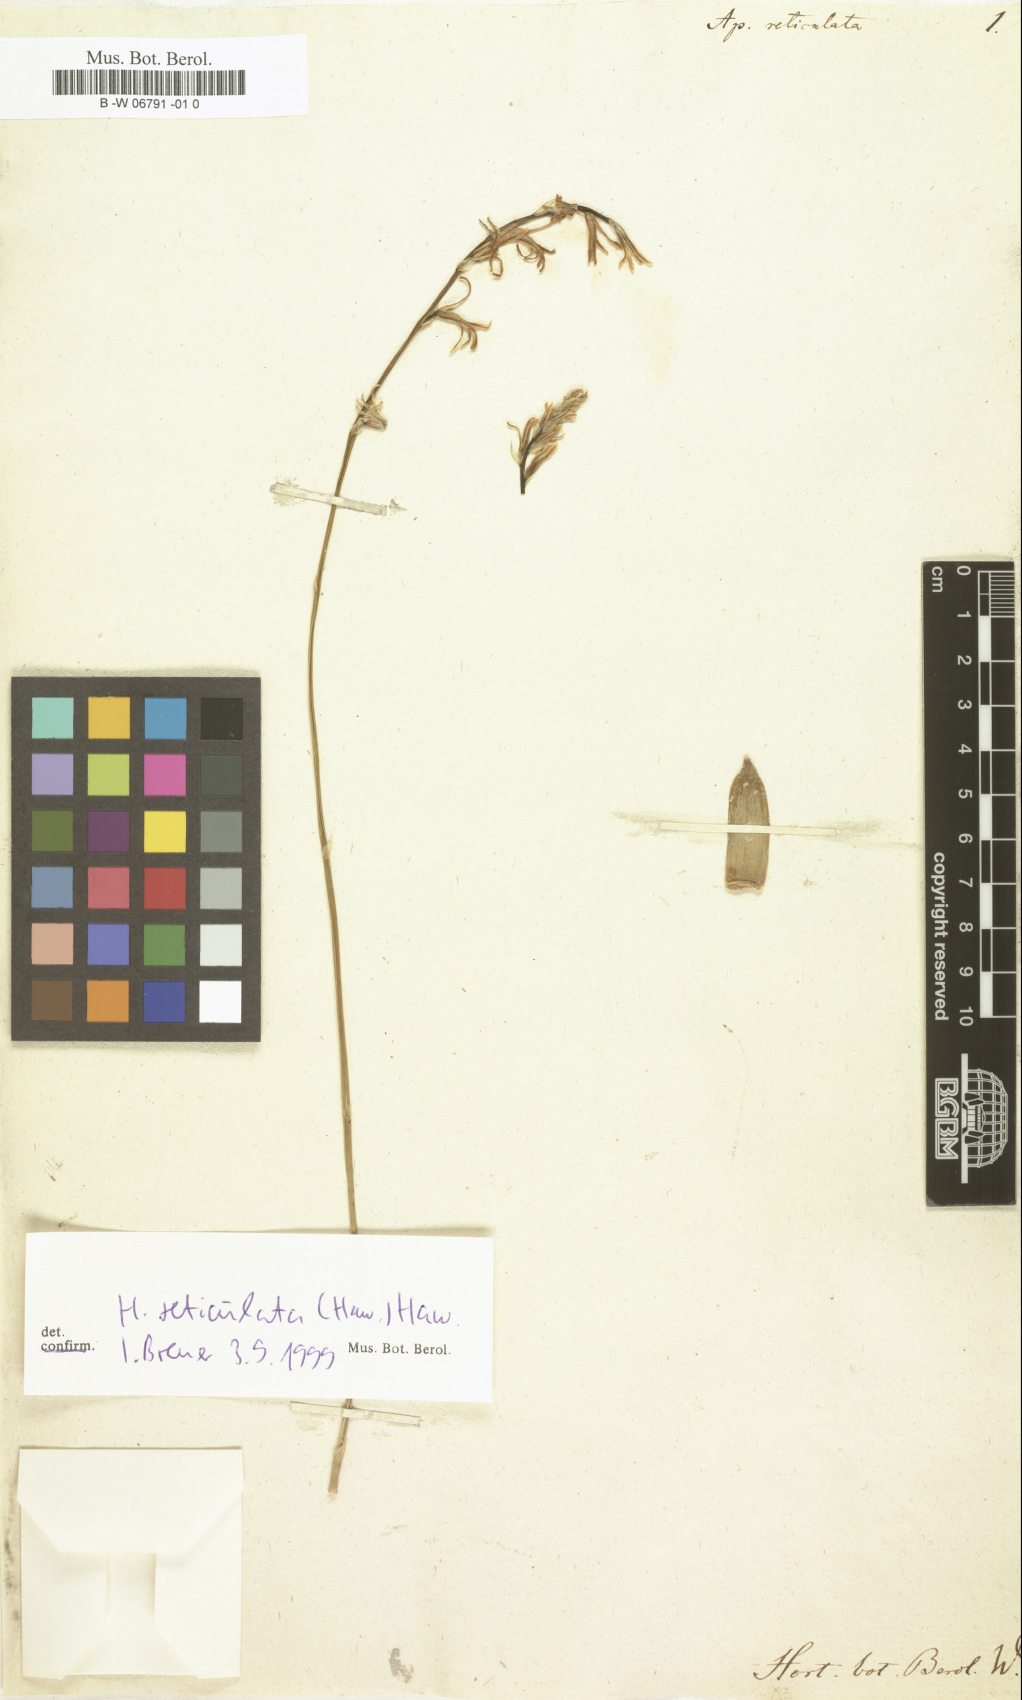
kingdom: Plantae
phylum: Tracheophyta
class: Liliopsida
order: Asparagales
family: Asphodelaceae
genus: Haworthia
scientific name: Haworthia reticulata
